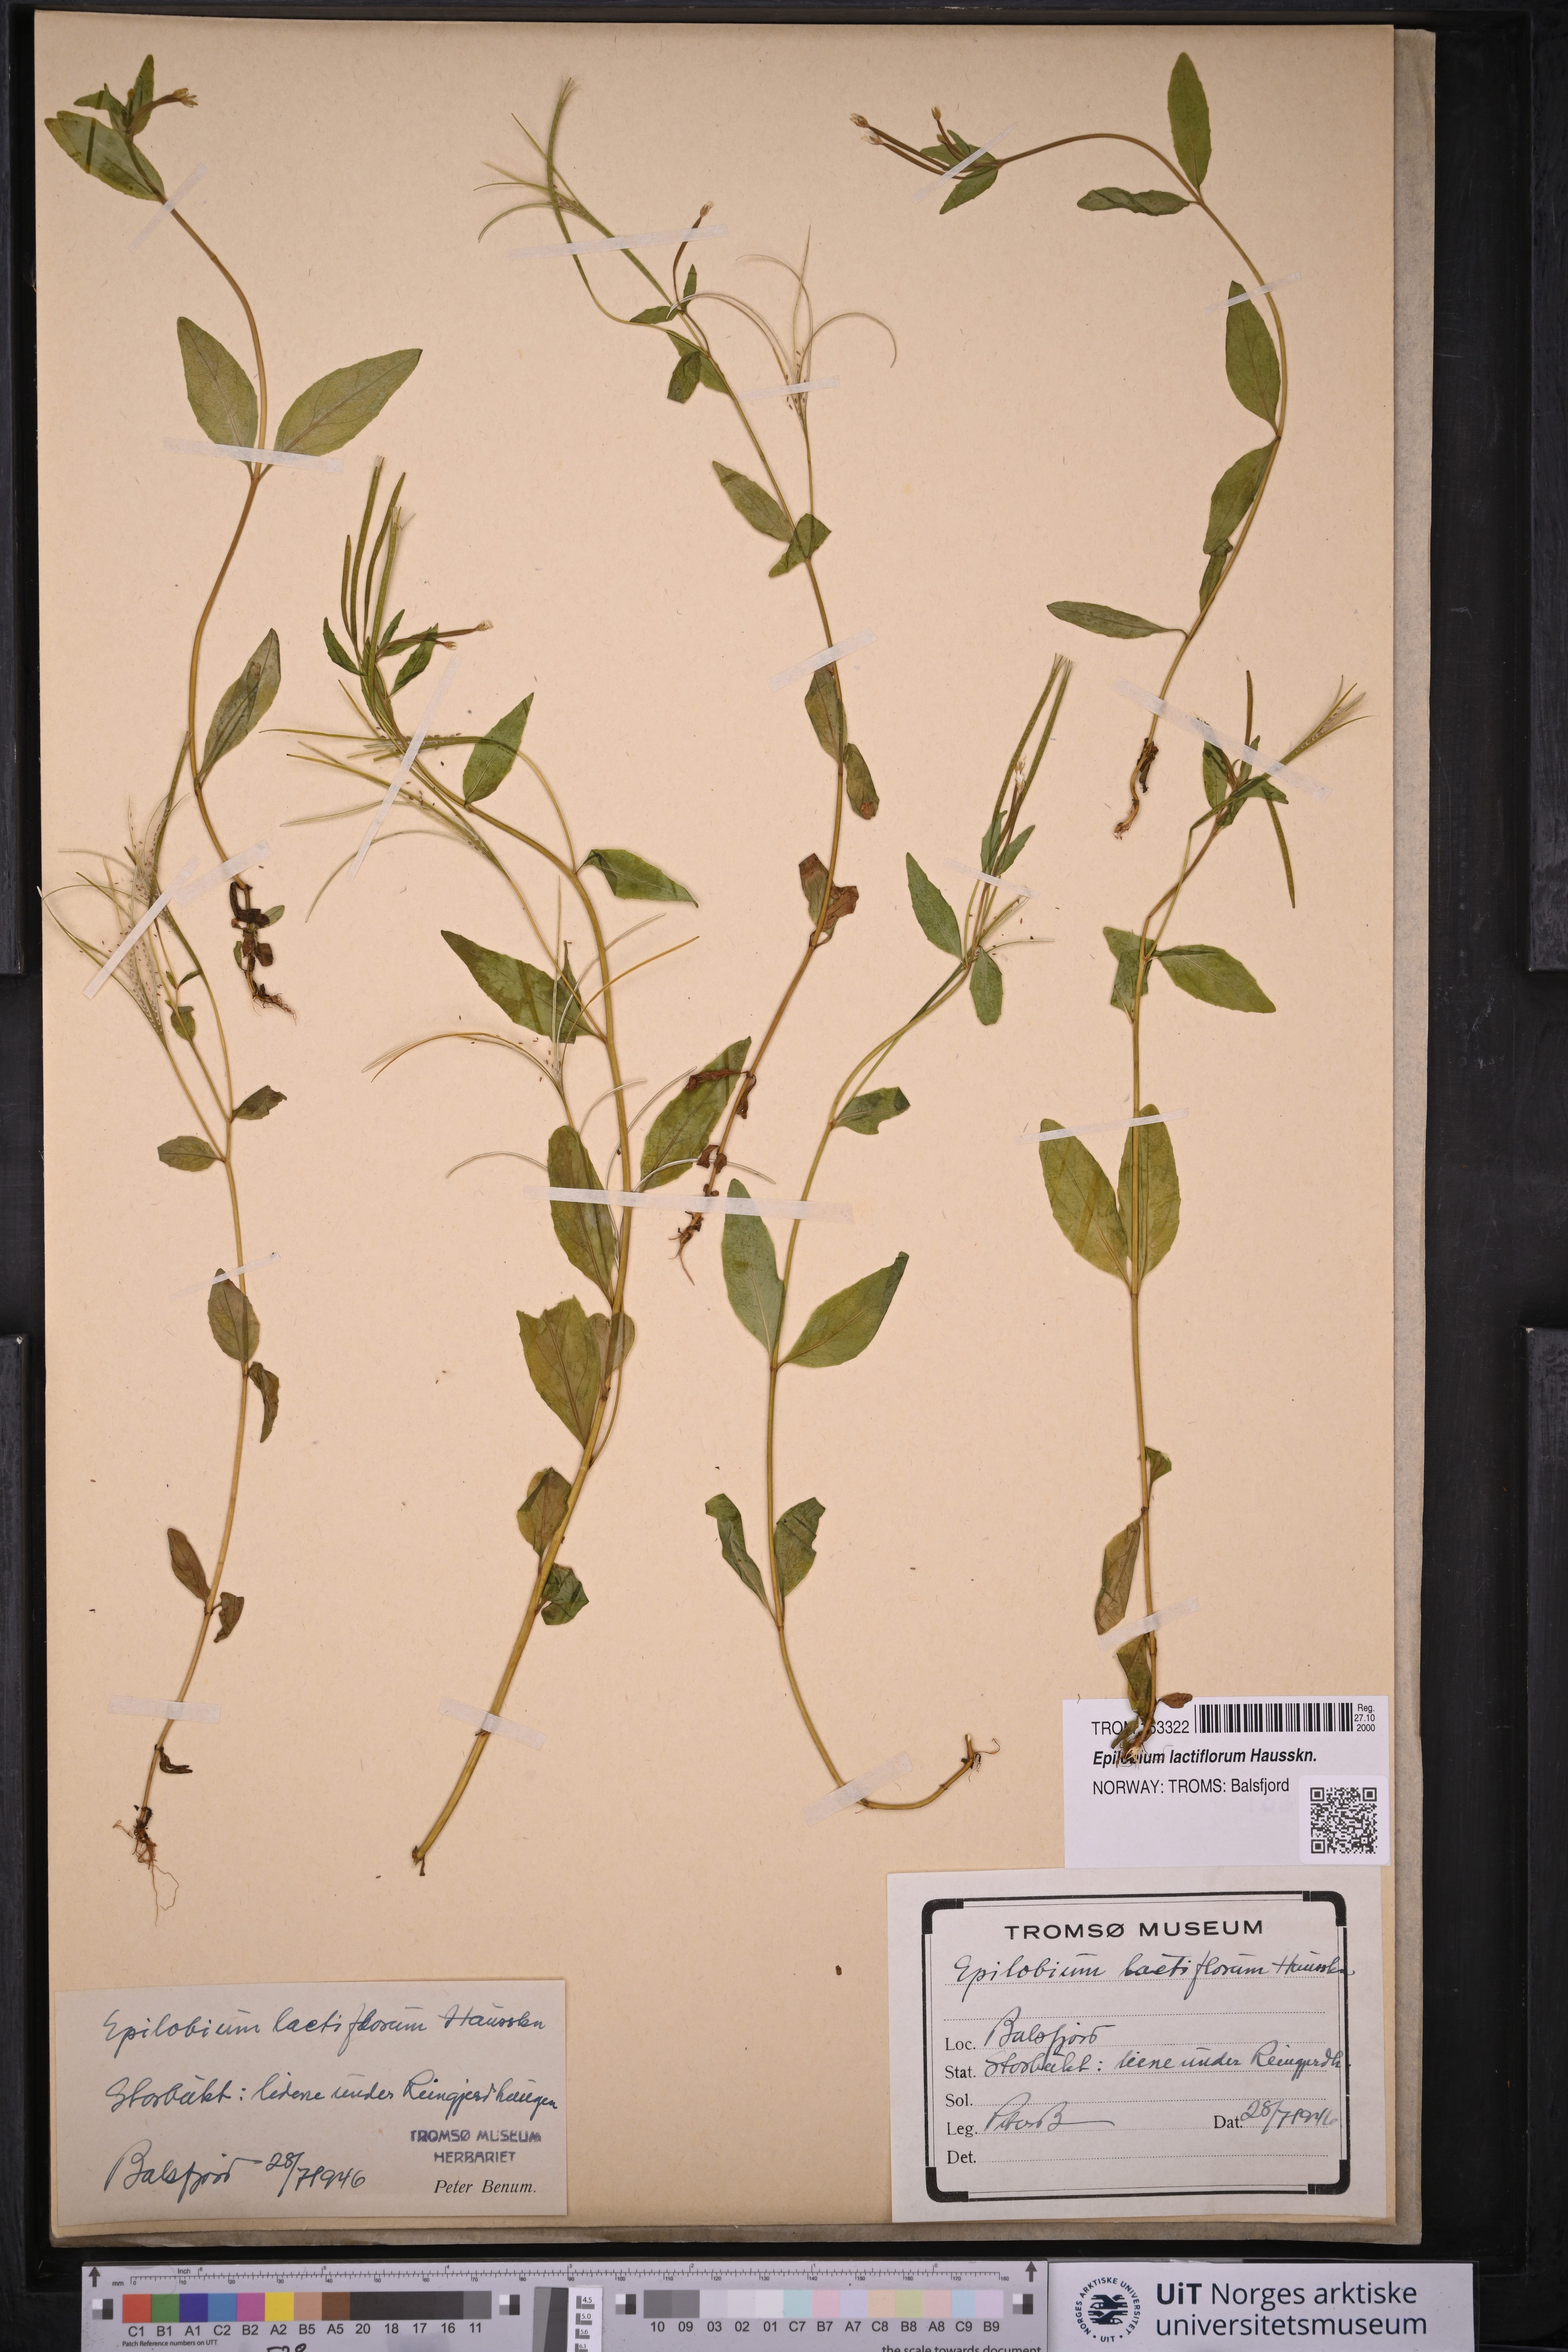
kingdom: Plantae
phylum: Tracheophyta
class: Magnoliopsida
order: Myrtales
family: Onagraceae
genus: Epilobium
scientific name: Epilobium lactiflorum
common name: Milkflower willowherb
